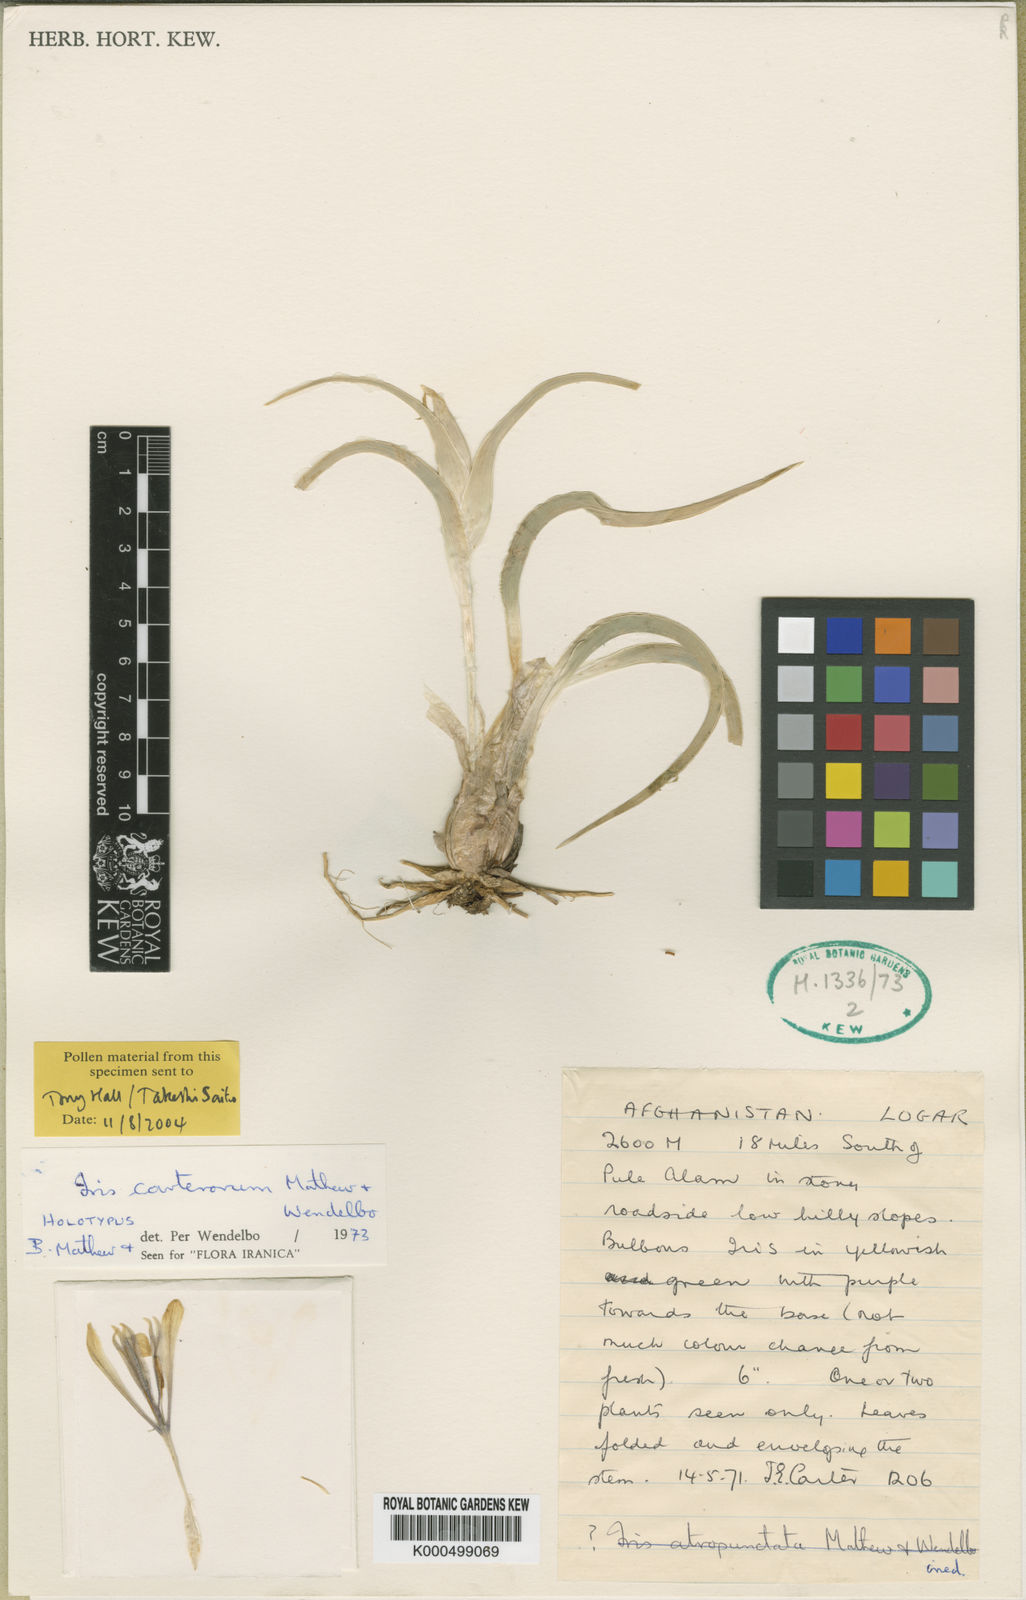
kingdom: Plantae
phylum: Tracheophyta
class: Liliopsida
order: Asparagales
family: Iridaceae
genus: Iris
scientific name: Iris carterorum
